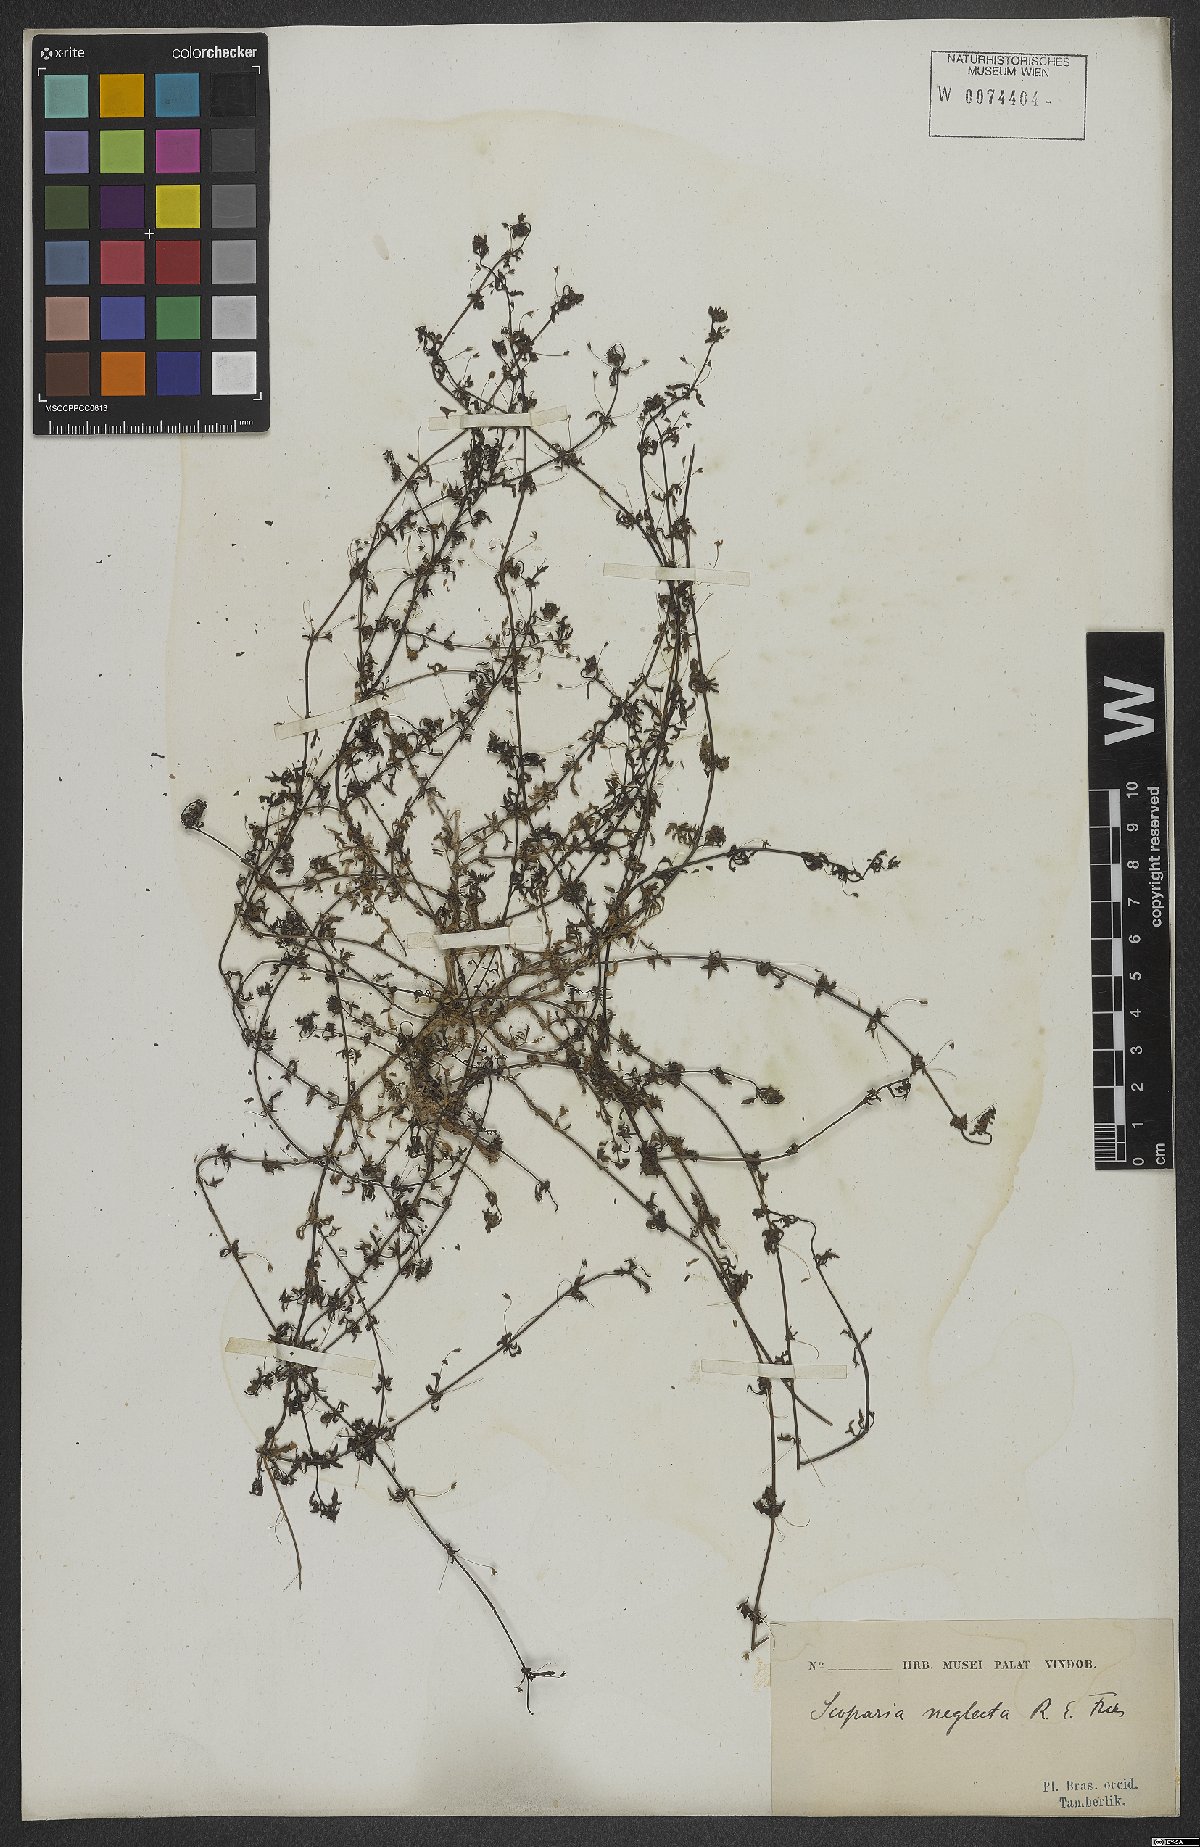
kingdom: Plantae
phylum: Tracheophyta
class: Magnoliopsida
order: Lamiales
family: Plantaginaceae
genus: Scoparia
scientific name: Scoparia montevidensis
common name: Broomwort
